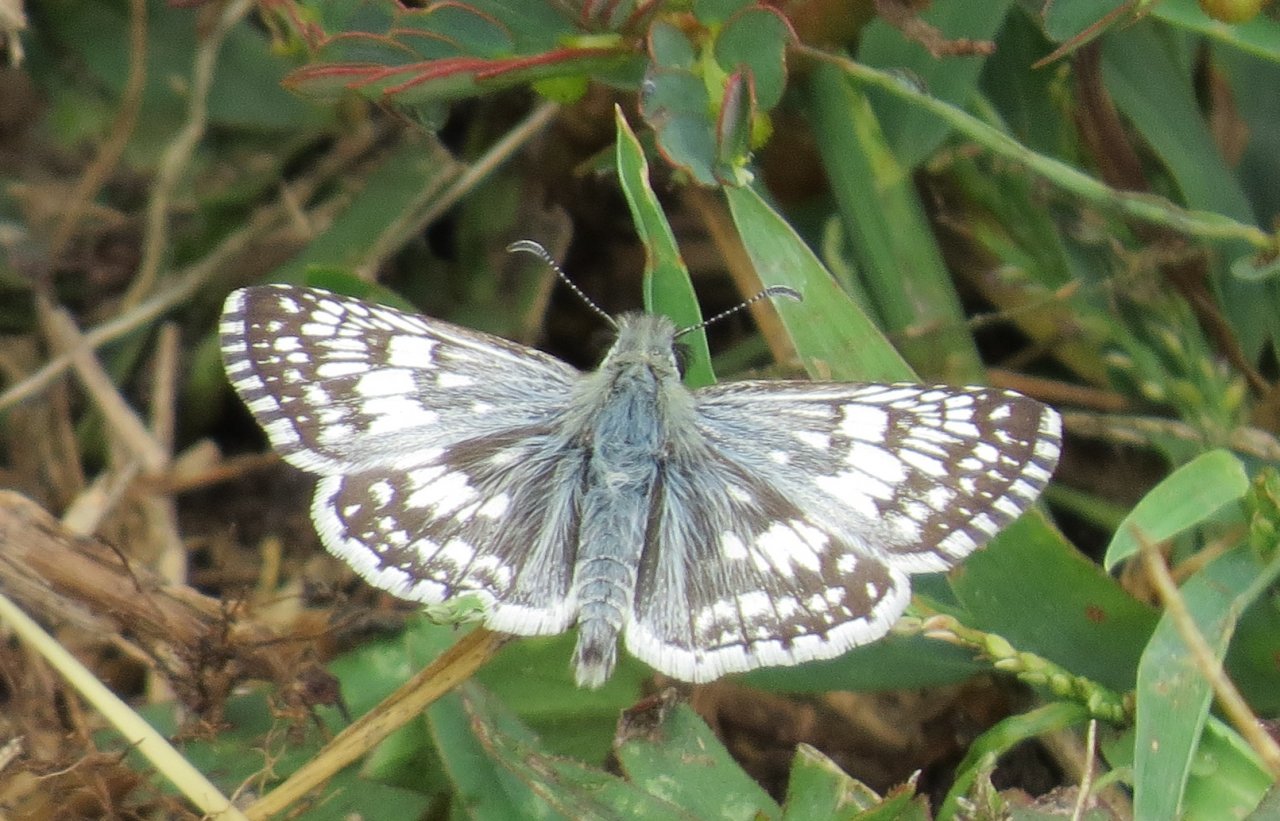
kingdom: Animalia
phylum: Arthropoda
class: Insecta
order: Lepidoptera
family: Hesperiidae
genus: Pyrgus
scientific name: Pyrgus communis
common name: White Checkered-Skipper
